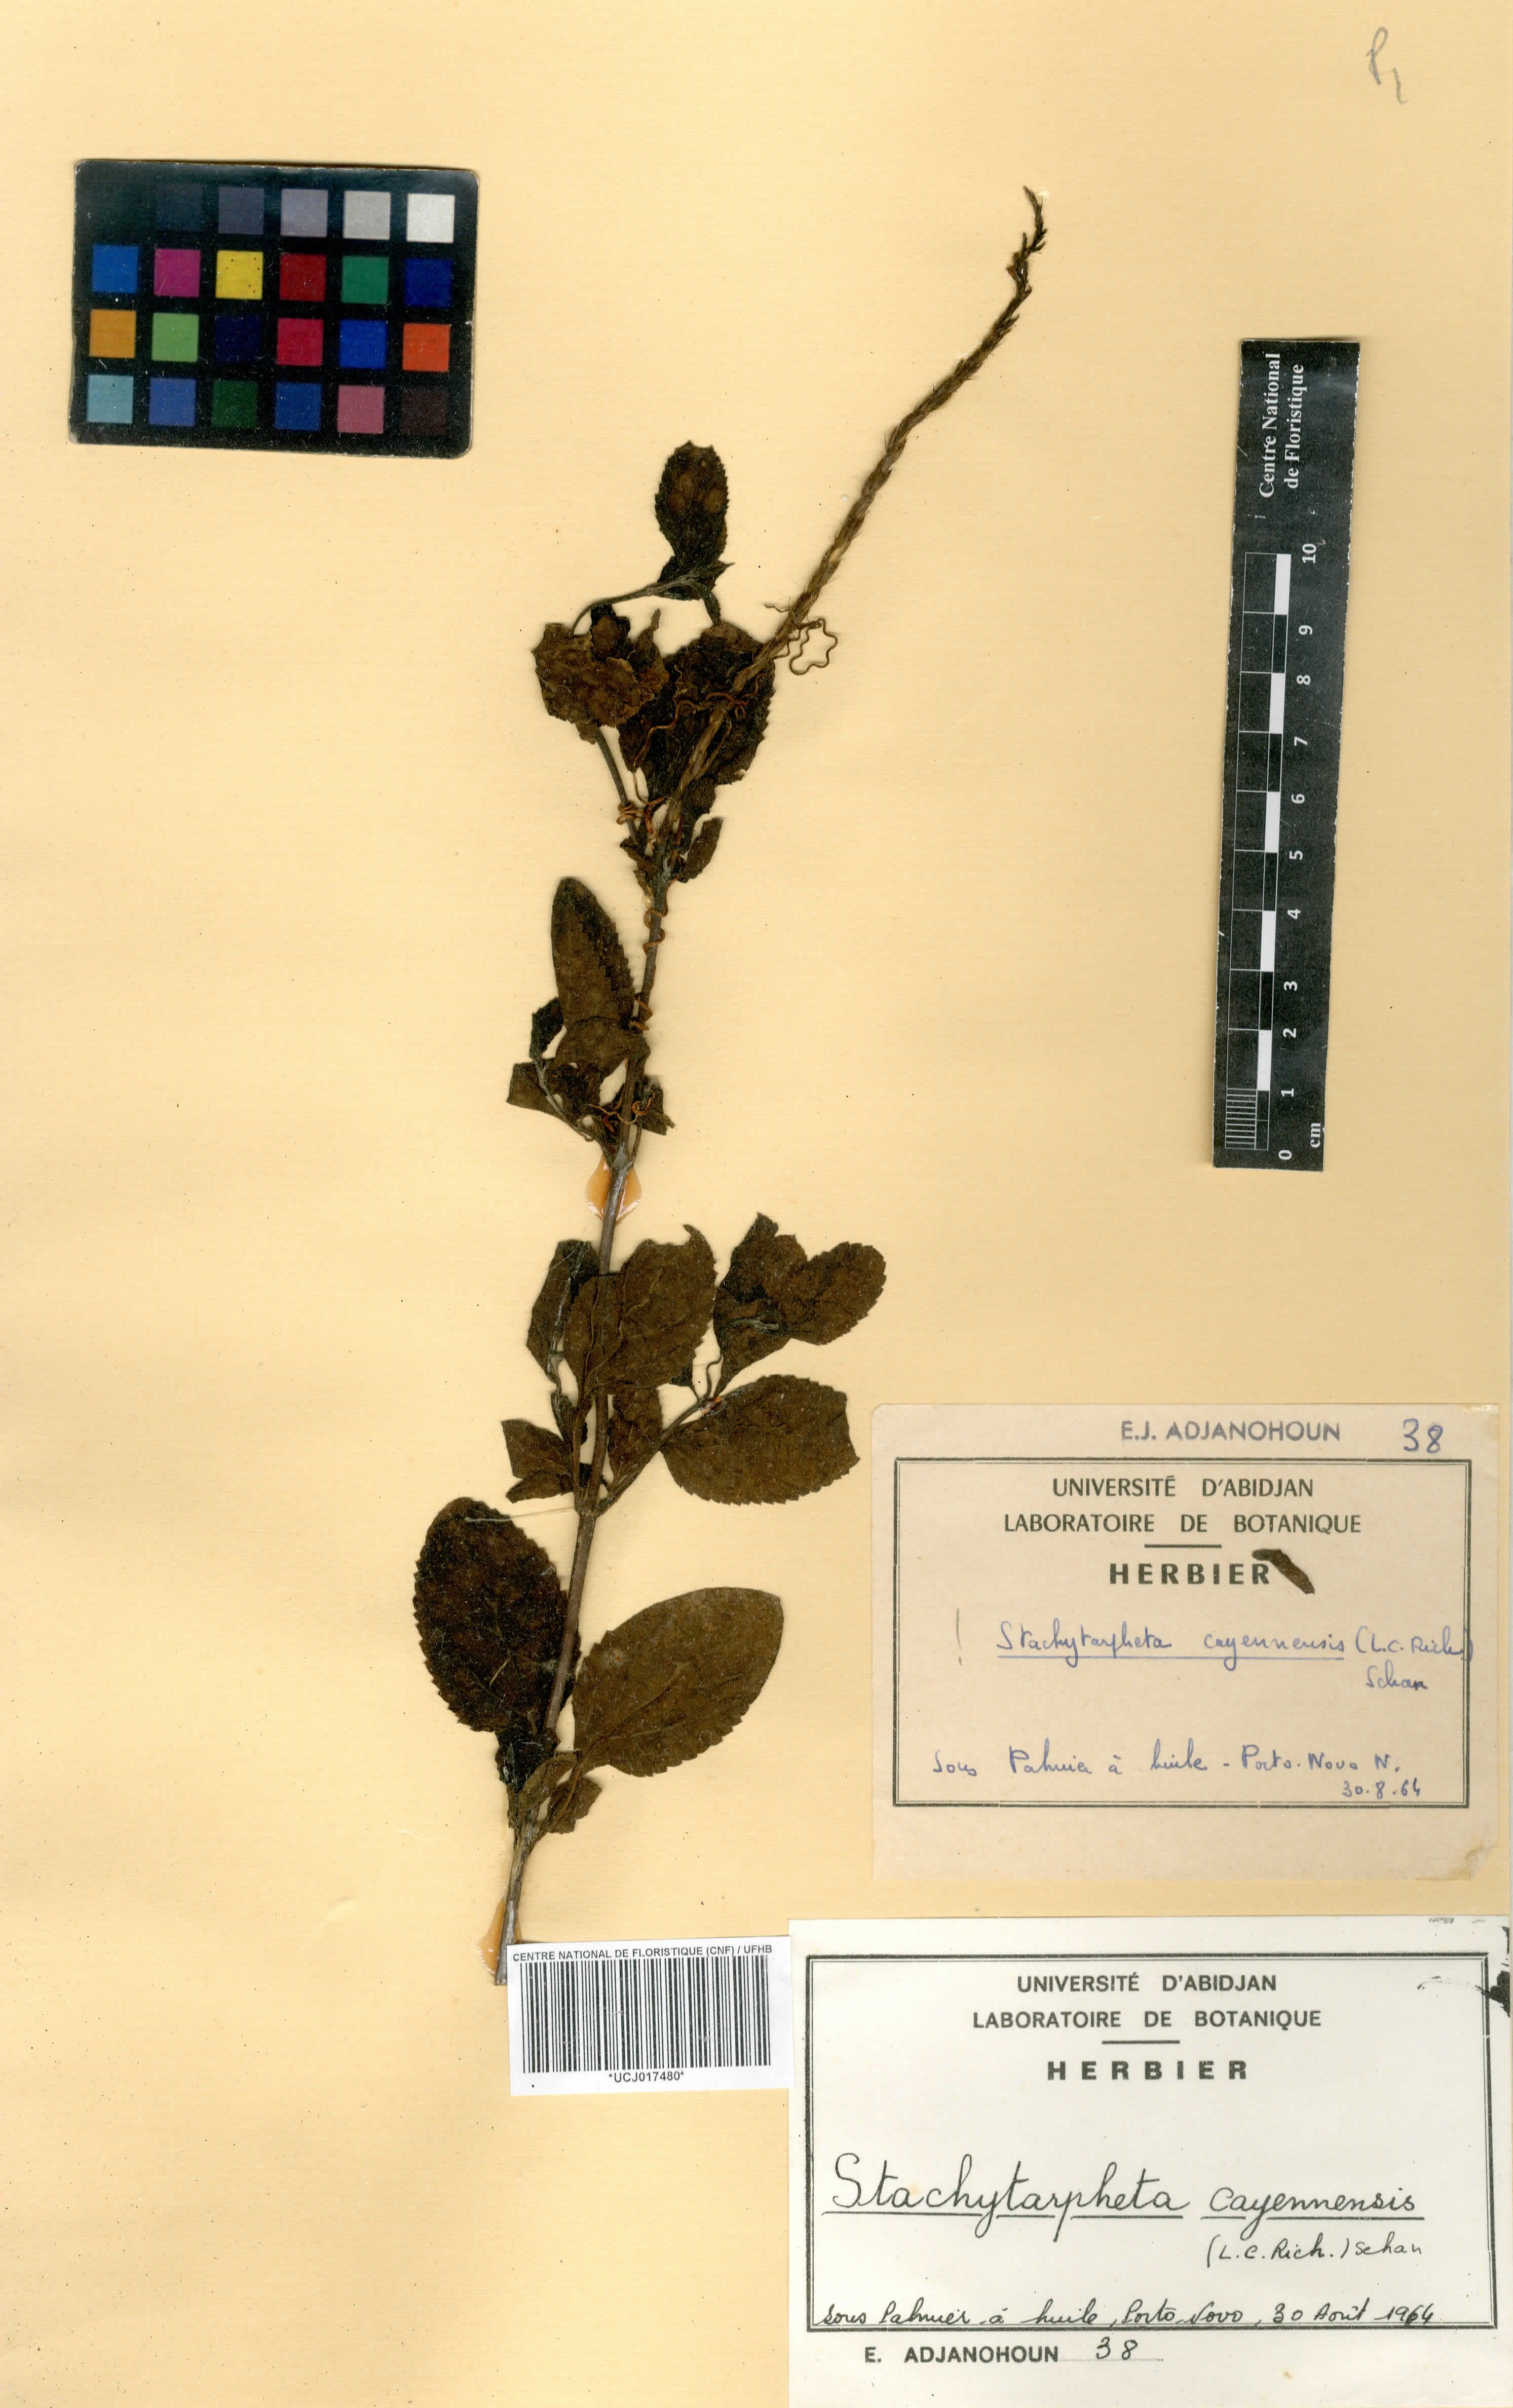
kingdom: Plantae
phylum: Tracheophyta
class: Magnoliopsida
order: Lamiales
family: Verbenaceae
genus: Stachytarpheta
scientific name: Stachytarpheta cayennensis
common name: Cayenne porterweed
